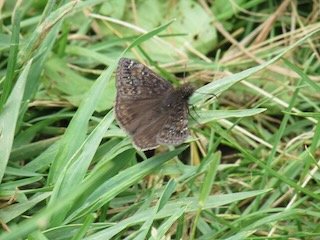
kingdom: Animalia
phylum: Arthropoda
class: Insecta
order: Lepidoptera
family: Hesperiidae
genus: Erynnis
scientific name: Erynnis
